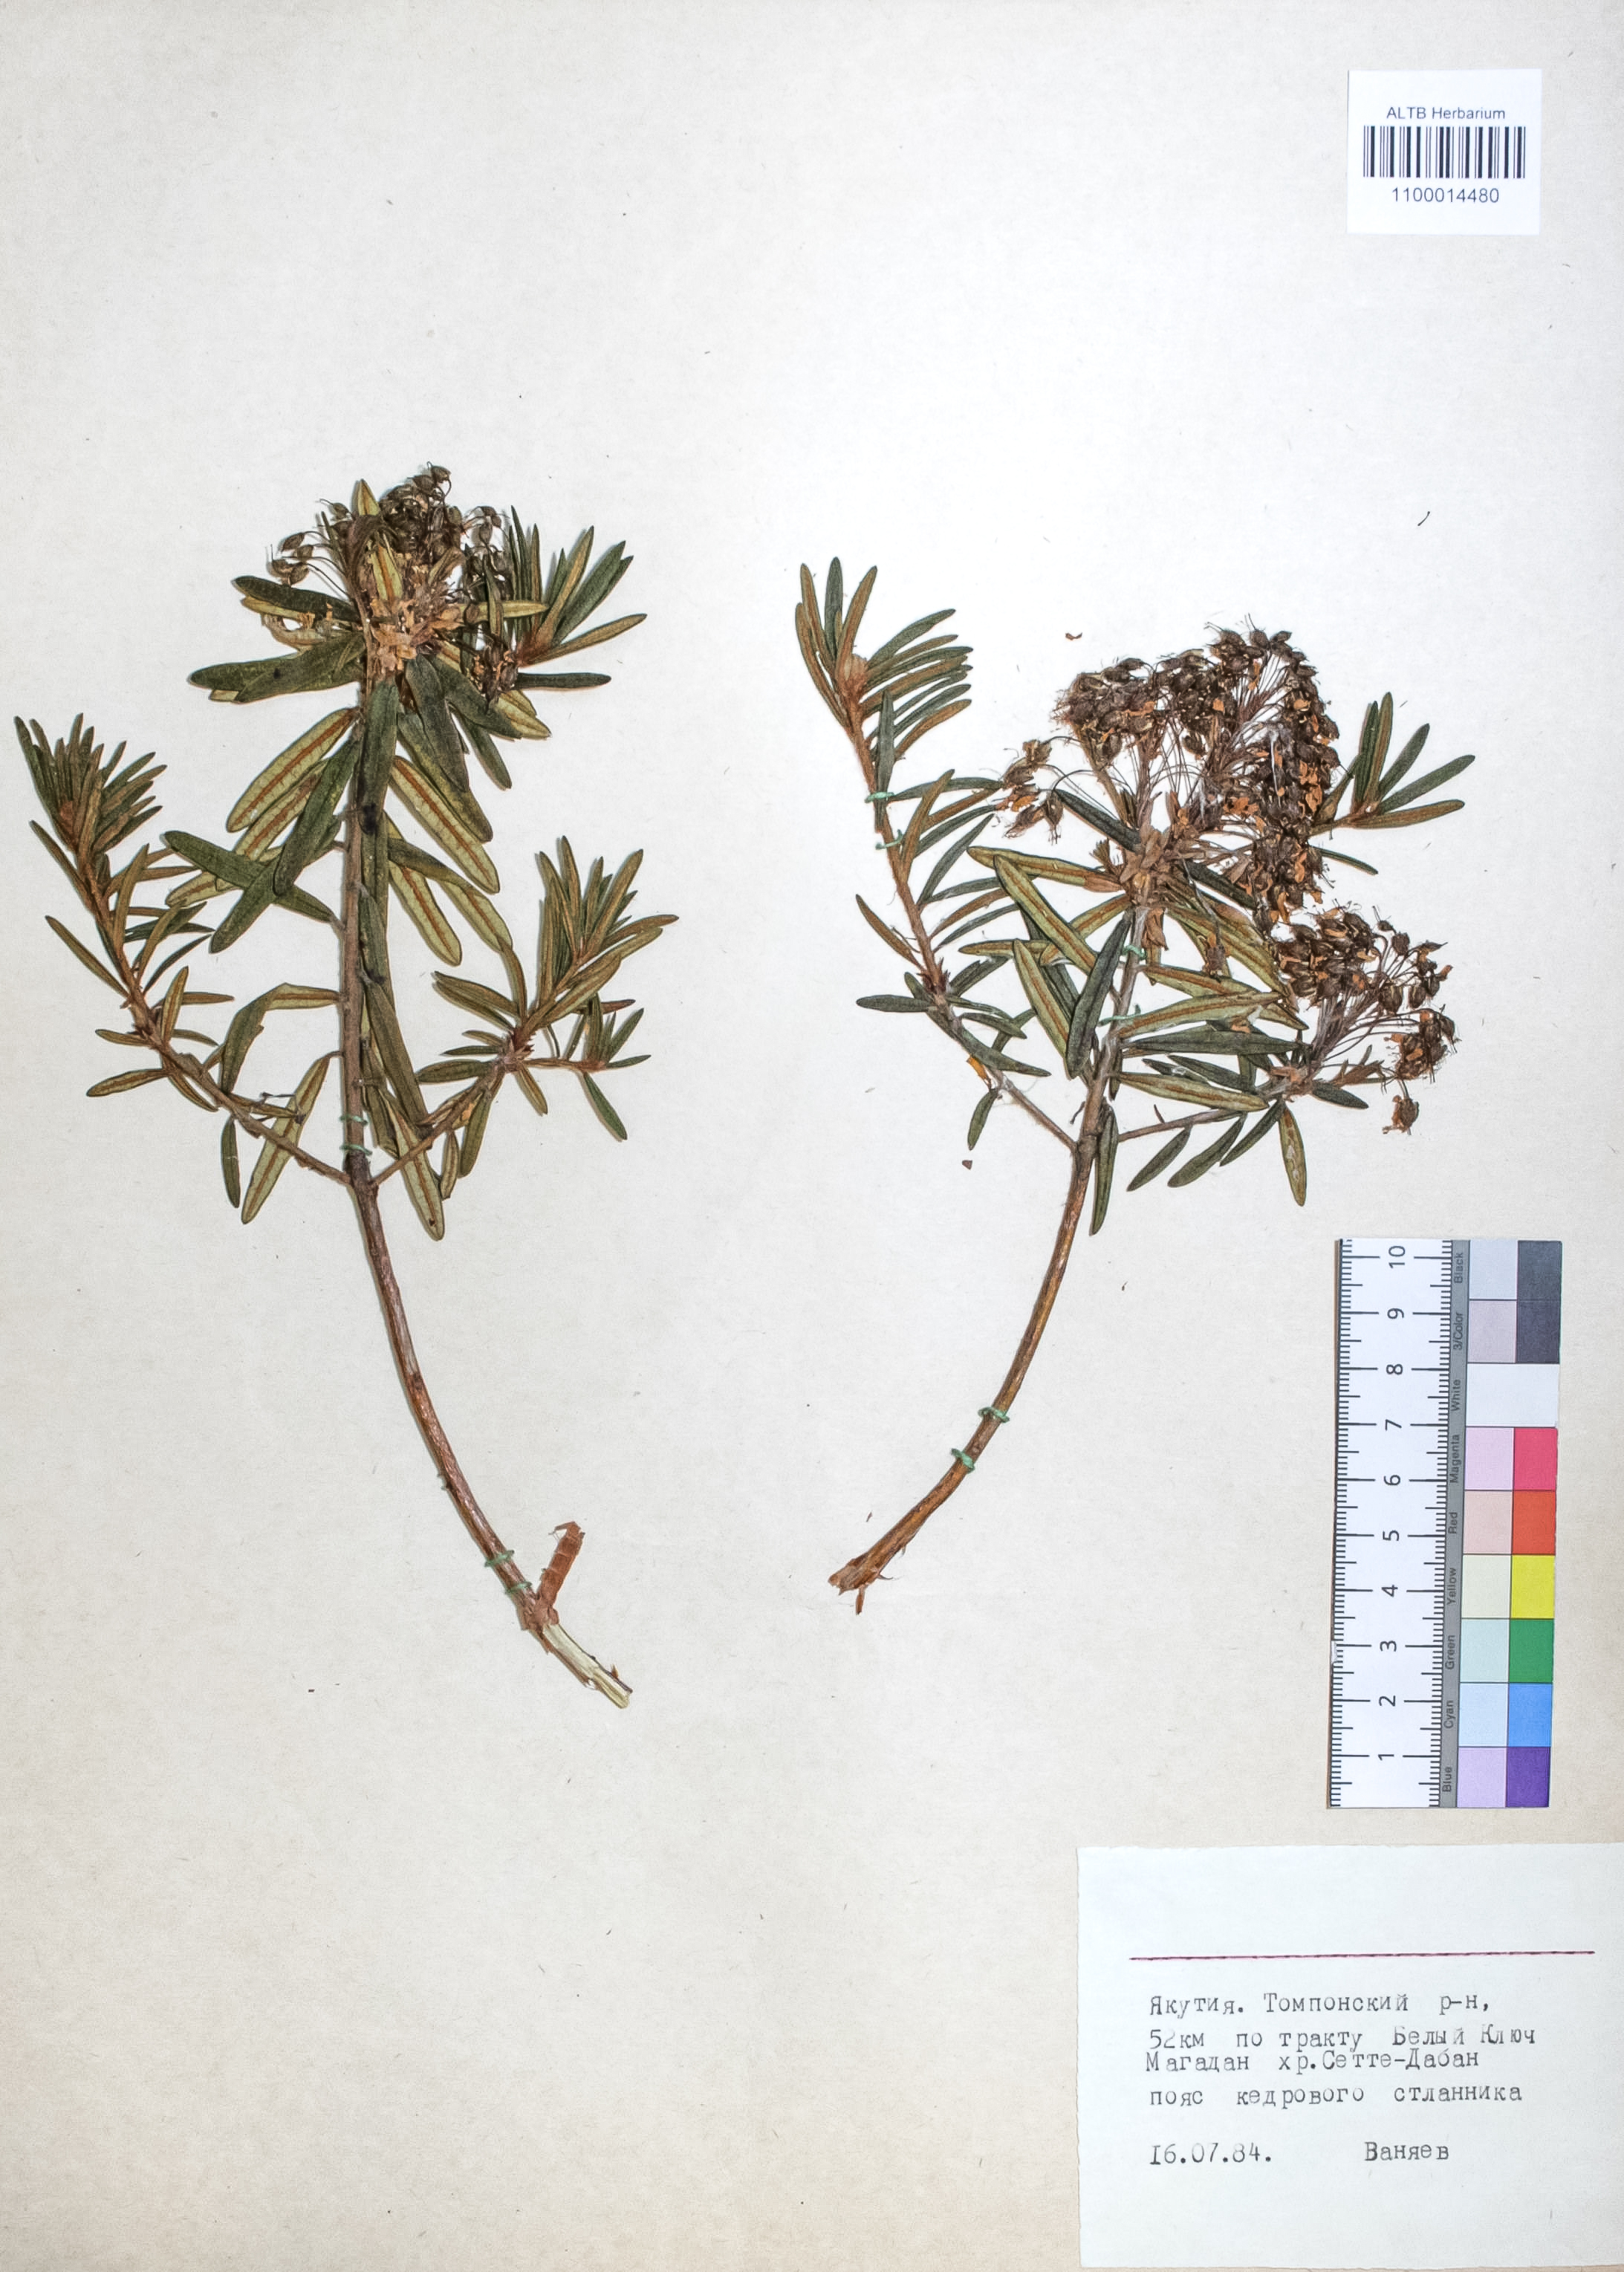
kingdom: Plantae
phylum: Tracheophyta
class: Magnoliopsida
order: Ericales
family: Ericaceae
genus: Rhododendron
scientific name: Rhododendron tomentosum
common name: Marsh labrador tea
